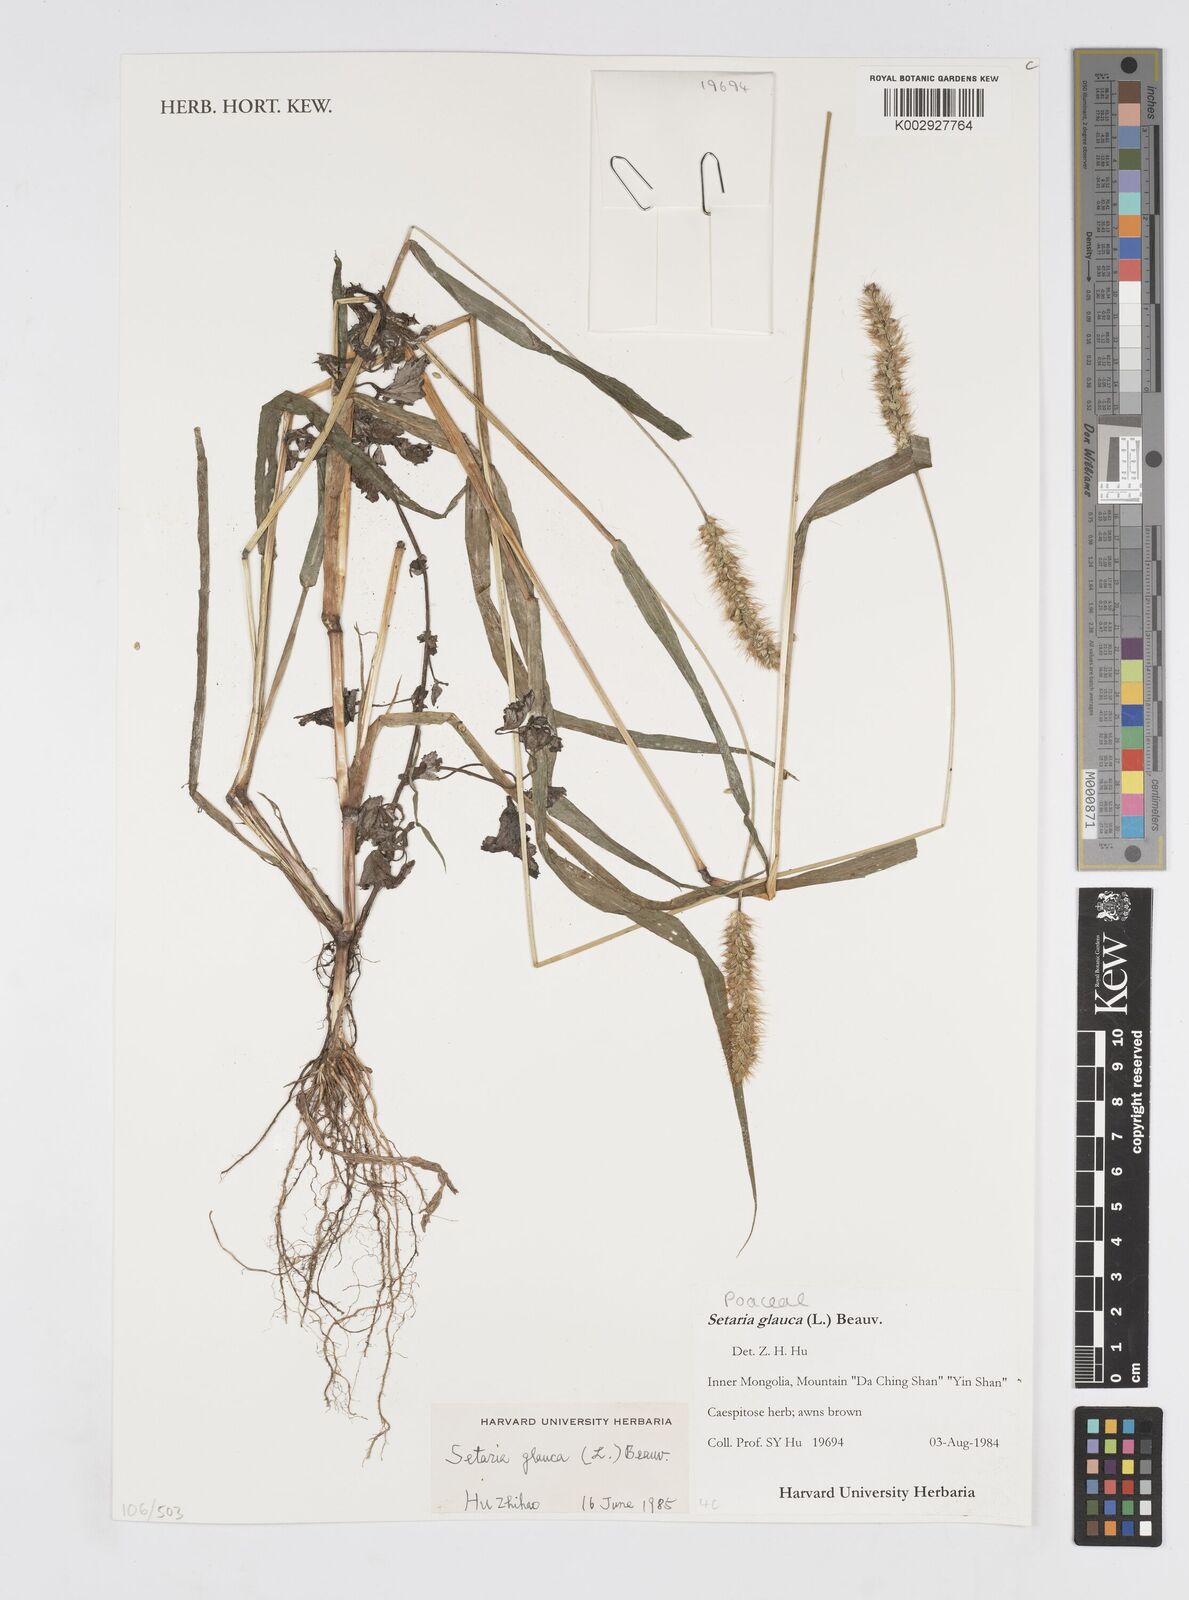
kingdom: Plantae
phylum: Tracheophyta
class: Liliopsida
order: Poales
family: Poaceae
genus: Cenchrus
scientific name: Cenchrus
